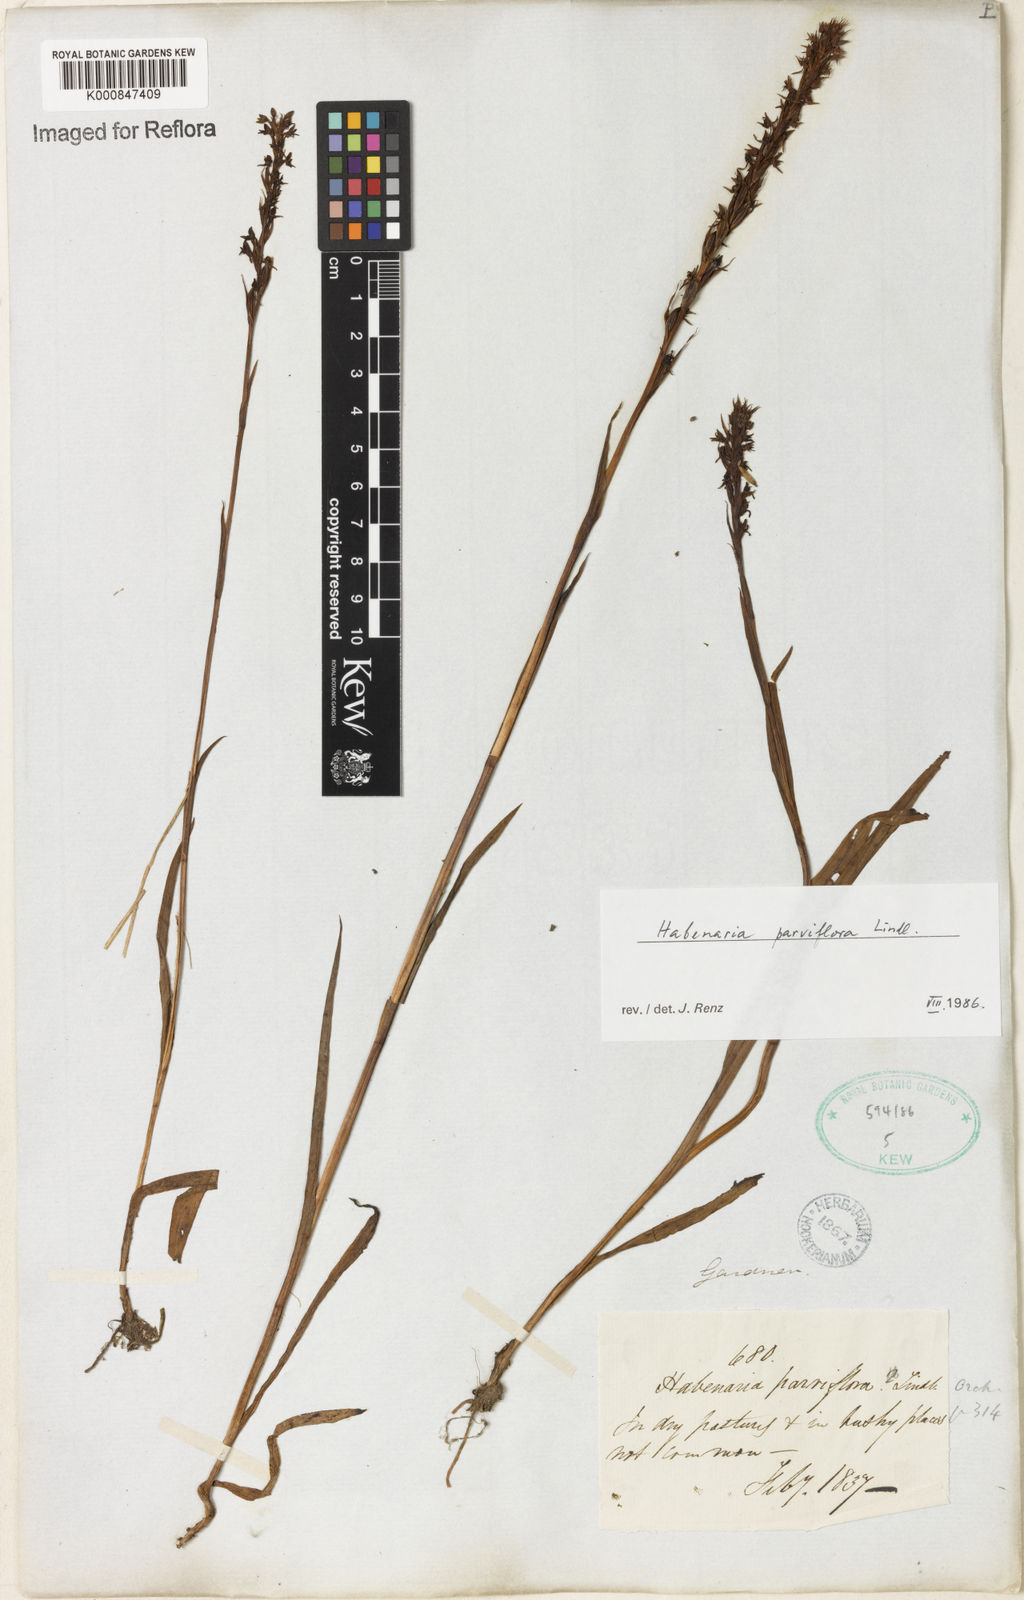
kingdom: Plantae
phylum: Tracheophyta
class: Liliopsida
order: Asparagales
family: Orchidaceae
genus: Habenaria
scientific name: Habenaria parviflora
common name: Small flowered habenaria
